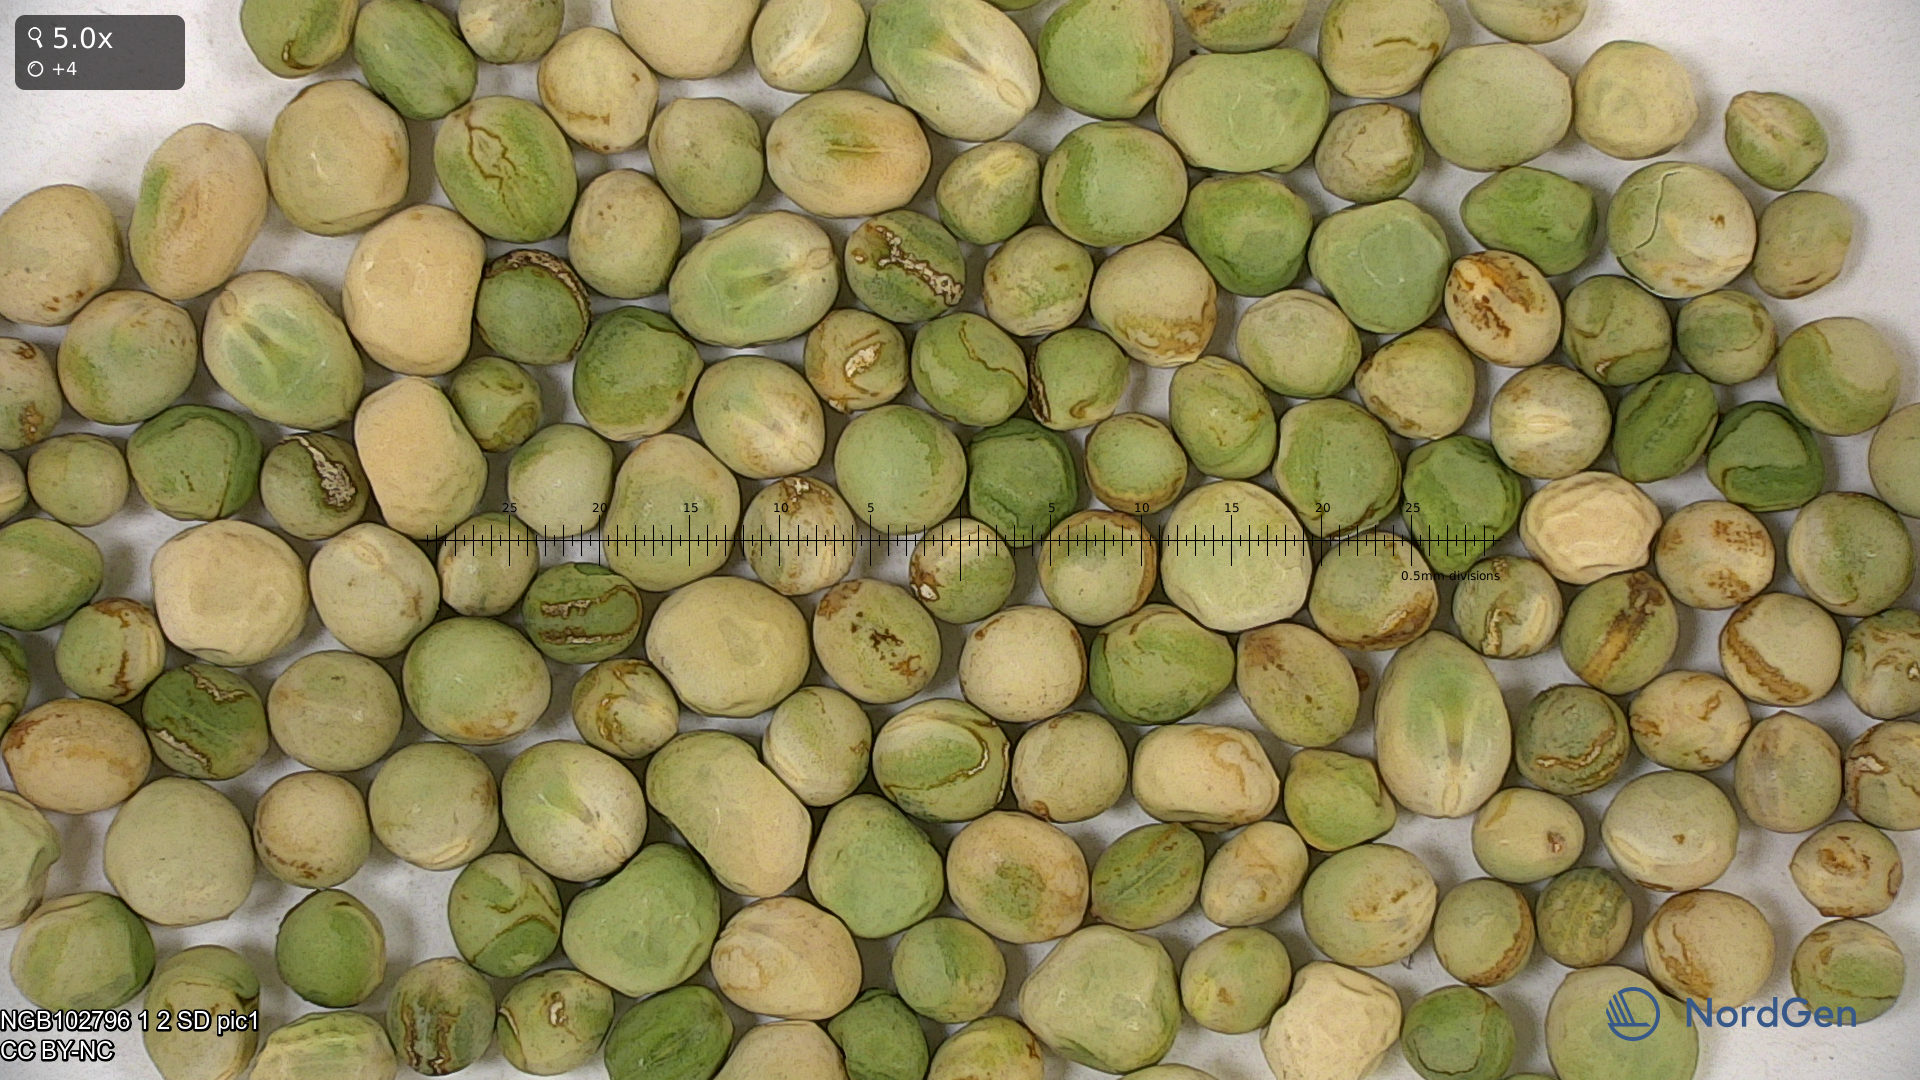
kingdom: Plantae
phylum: Tracheophyta
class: Magnoliopsida
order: Fabales
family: Fabaceae
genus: Lathyrus
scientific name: Lathyrus oleraceus
